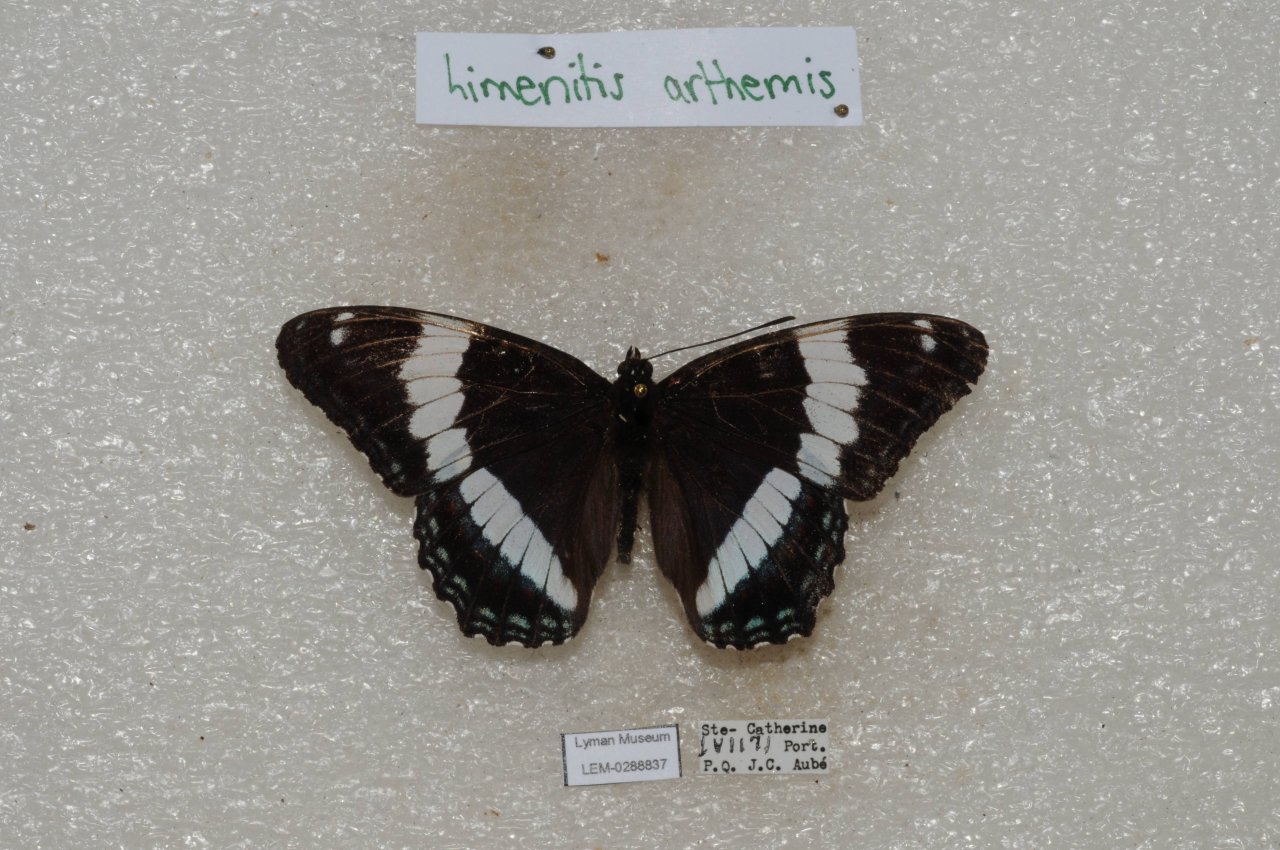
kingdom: Animalia
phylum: Arthropoda
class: Insecta
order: Lepidoptera
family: Nymphalidae
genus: Limenitis
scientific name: Limenitis arthemis
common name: Red-spotted Admiral
